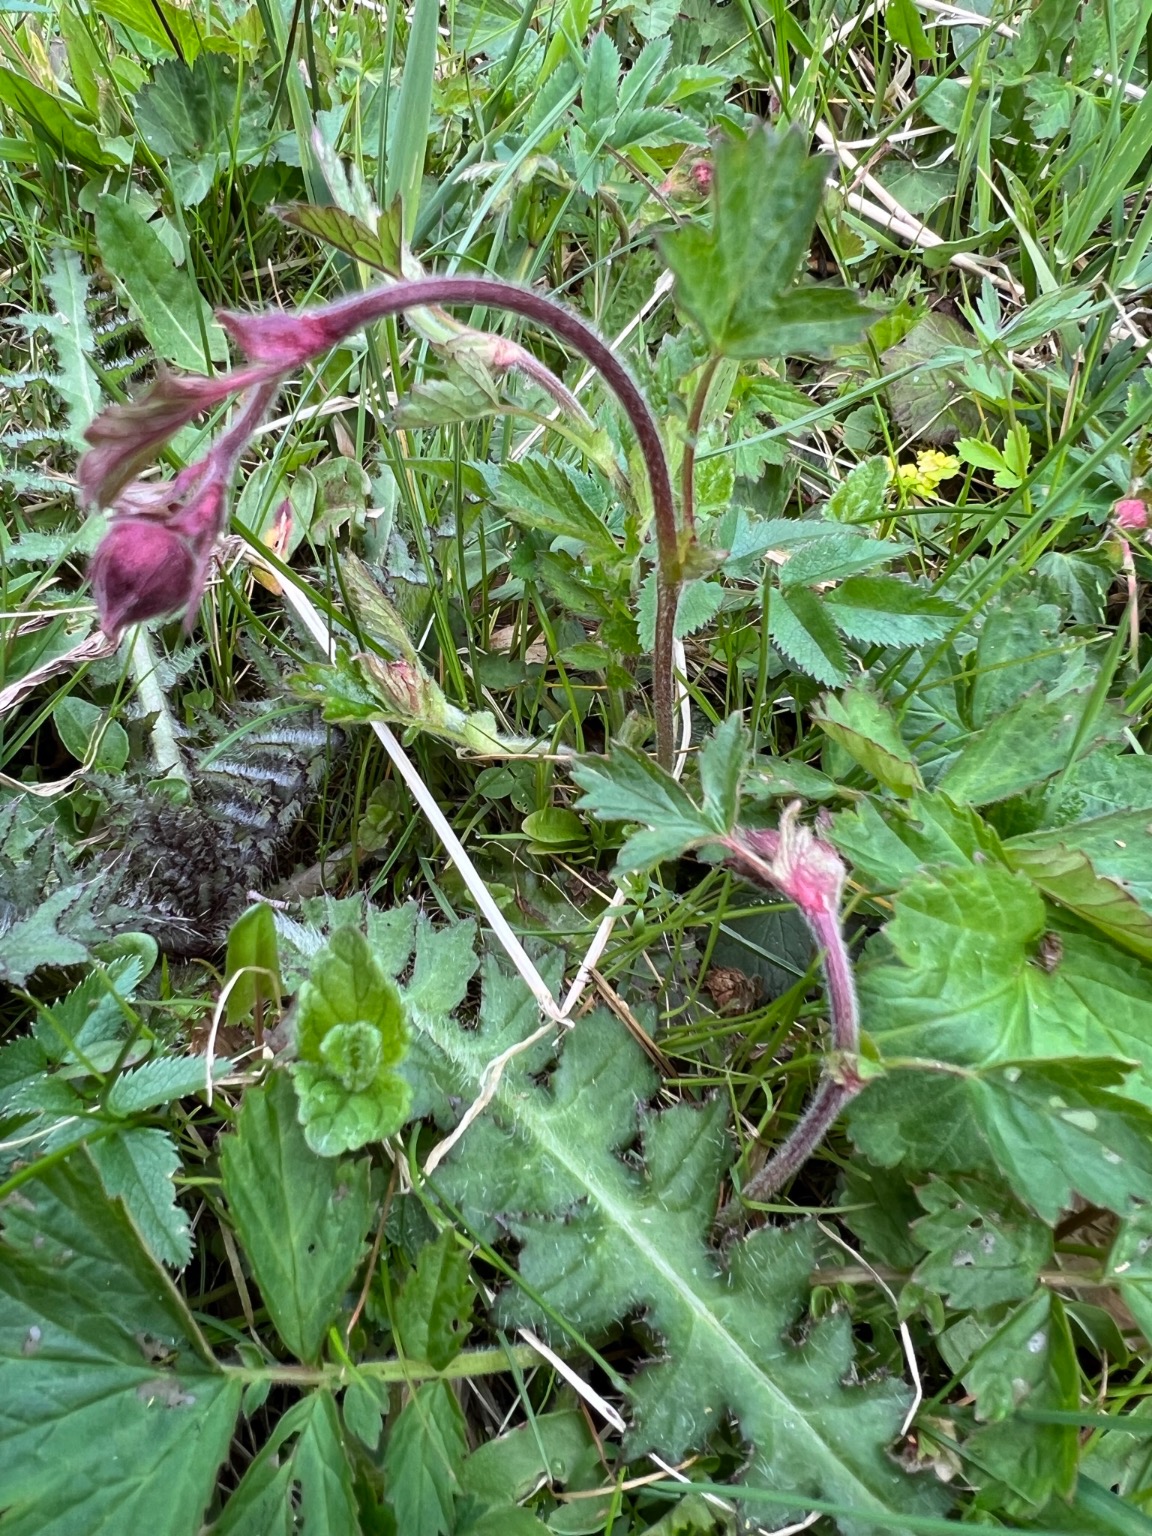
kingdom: Plantae
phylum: Tracheophyta
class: Magnoliopsida
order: Rosales
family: Rosaceae
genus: Geum
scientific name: Geum rivale
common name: Eng-nellikerod
